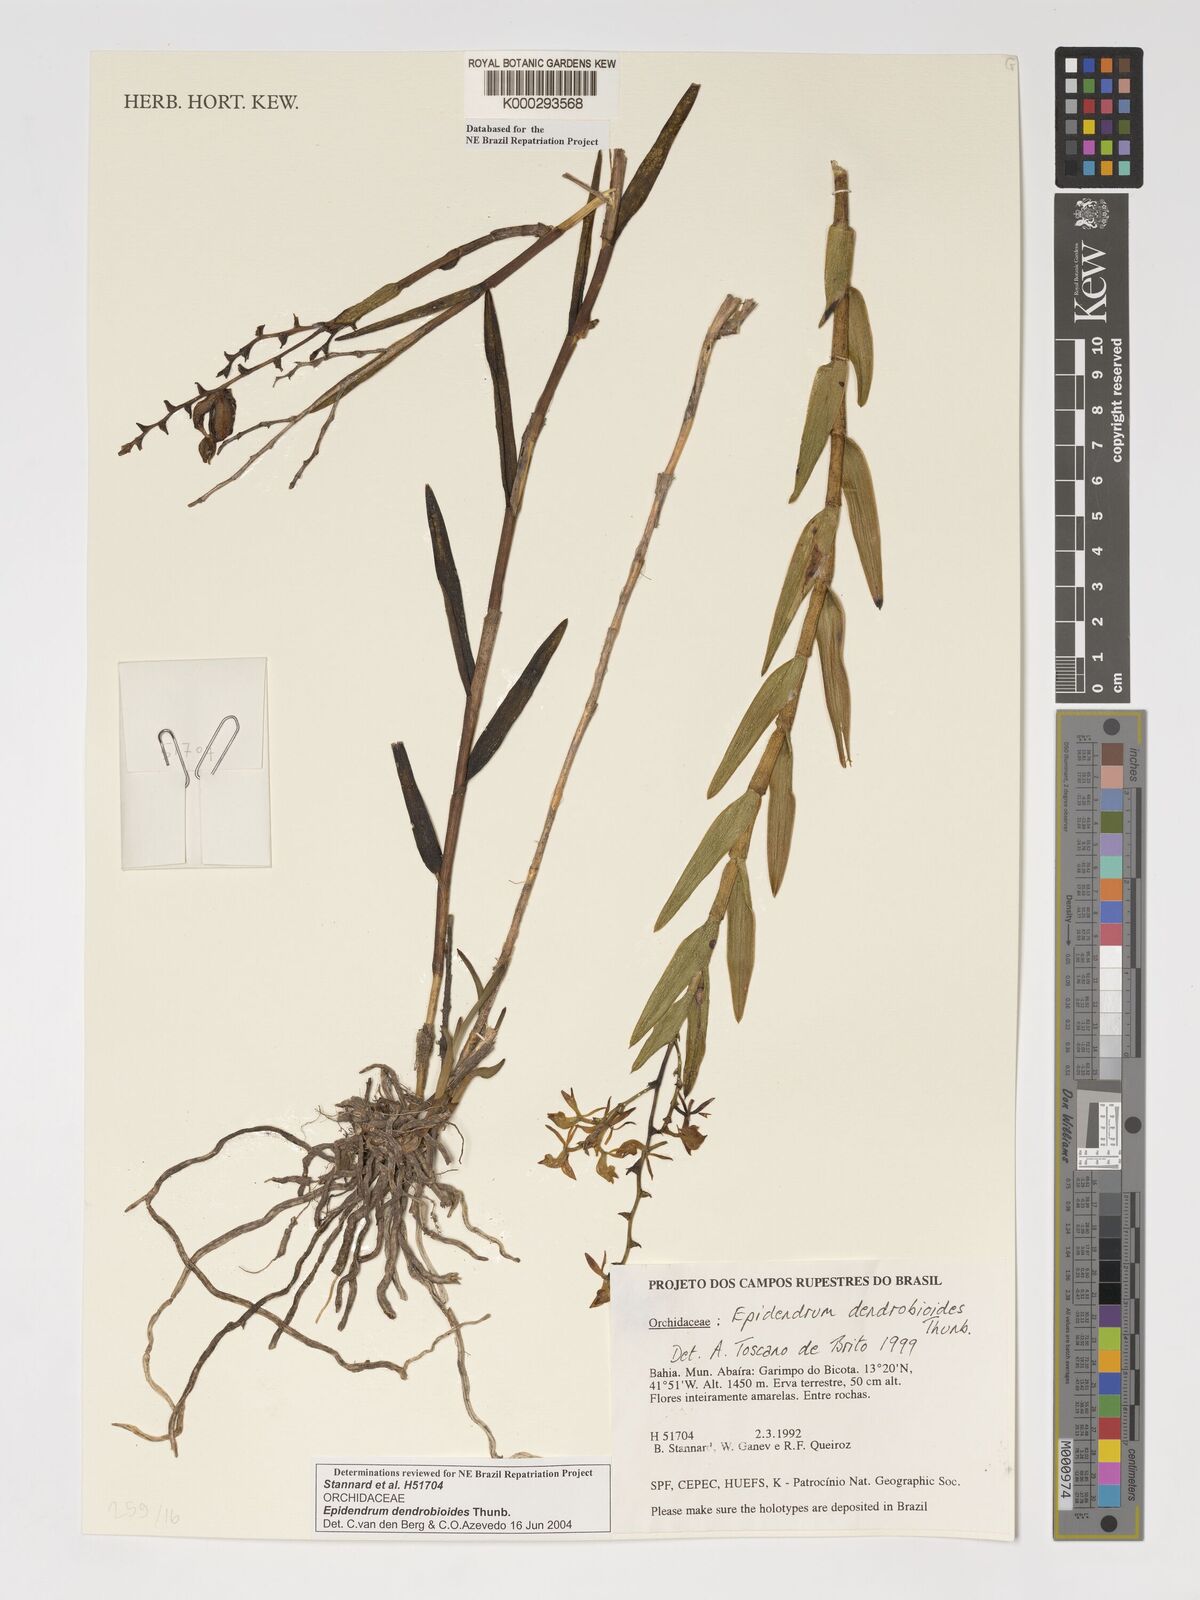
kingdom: Plantae
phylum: Tracheophyta
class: Liliopsida
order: Asparagales
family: Orchidaceae
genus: Epidendrum
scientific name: Epidendrum dendrobioides
